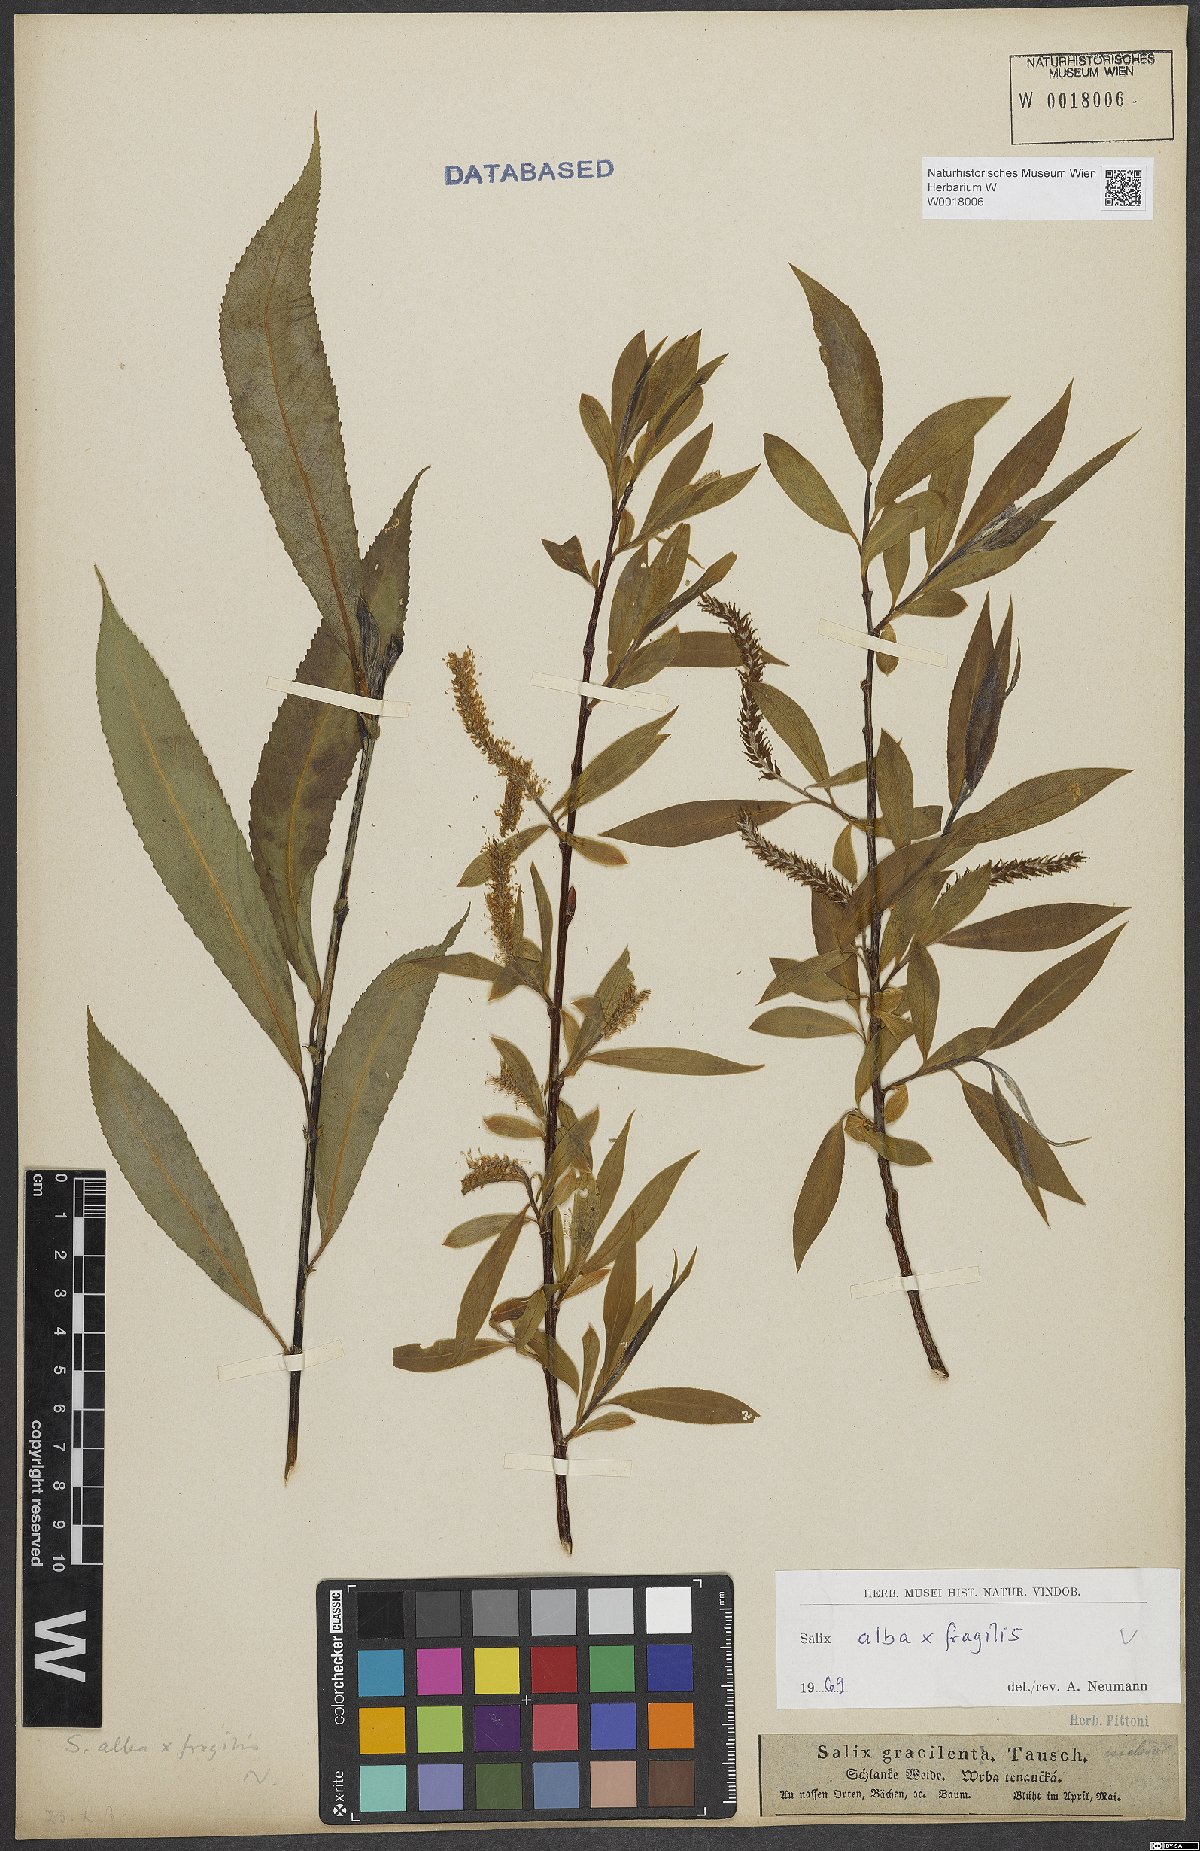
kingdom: Plantae
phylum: Tracheophyta
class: Magnoliopsida
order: Malpighiales
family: Salicaceae
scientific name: Salicaceae
